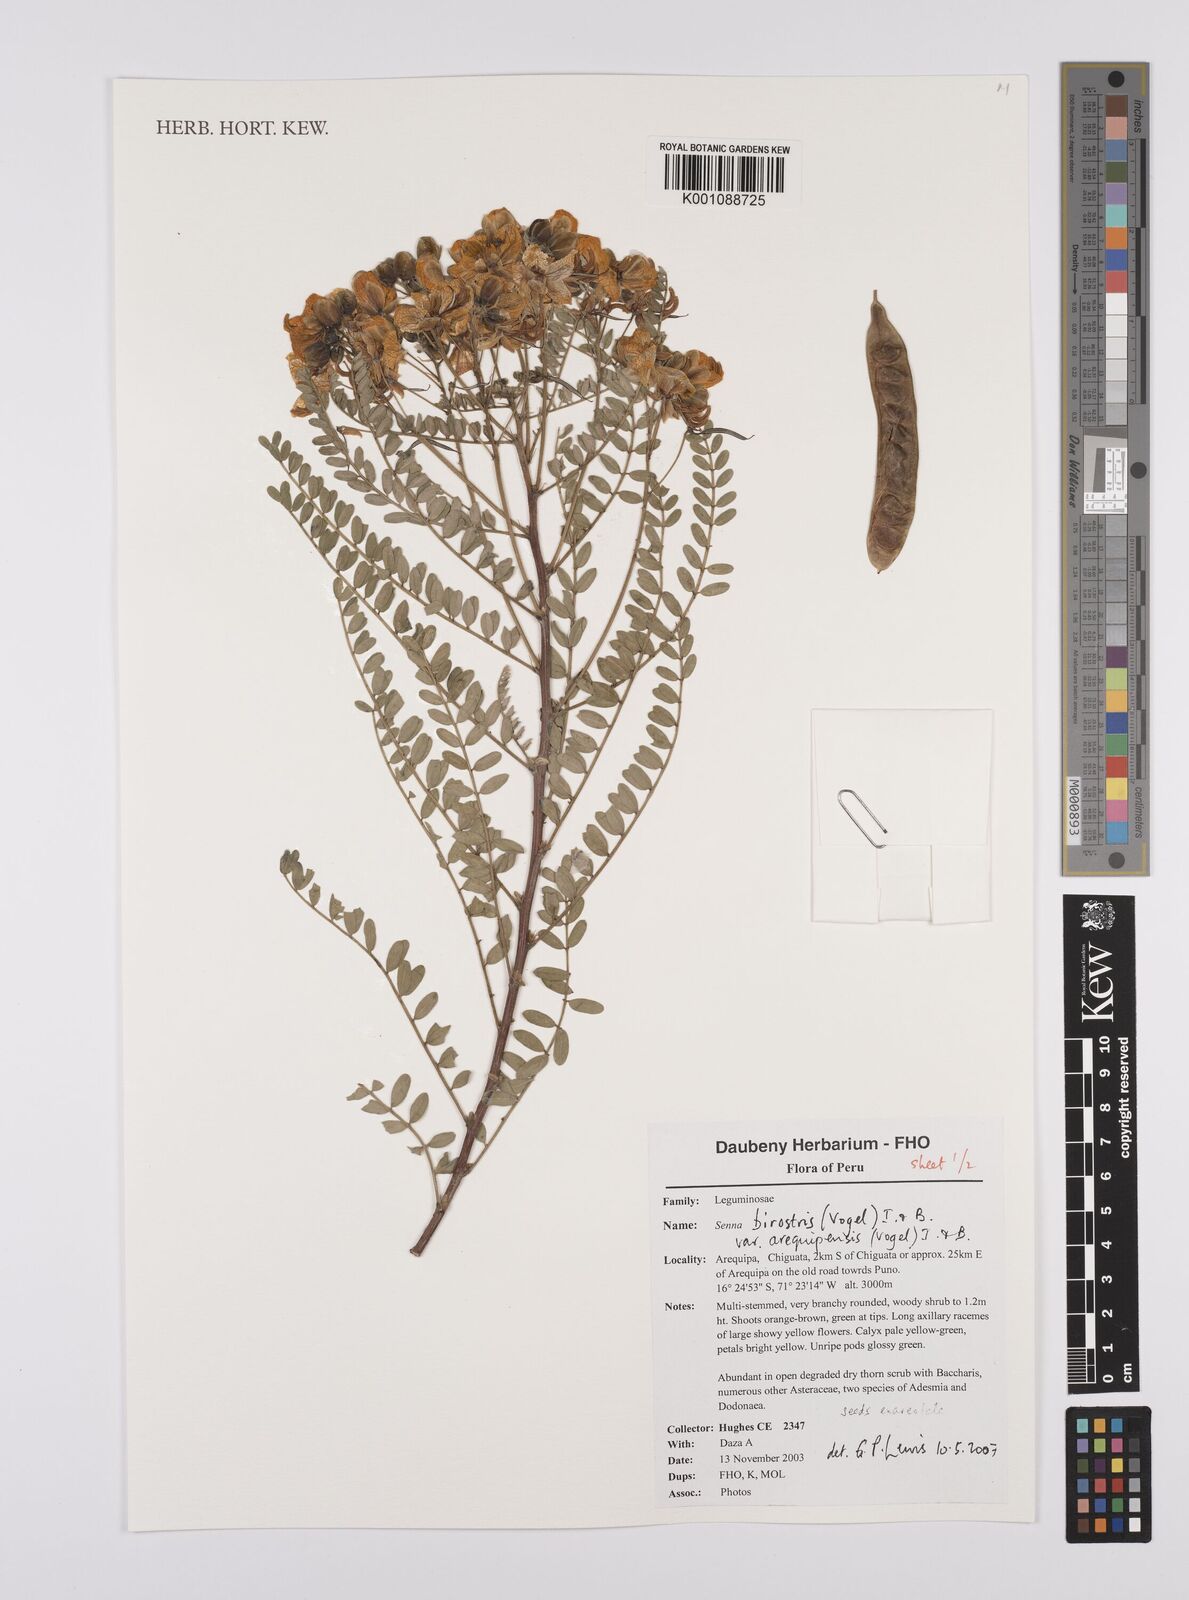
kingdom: Plantae
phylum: Tracheophyta
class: Magnoliopsida
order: Fabales
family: Fabaceae
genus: Senna
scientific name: Senna birostris
